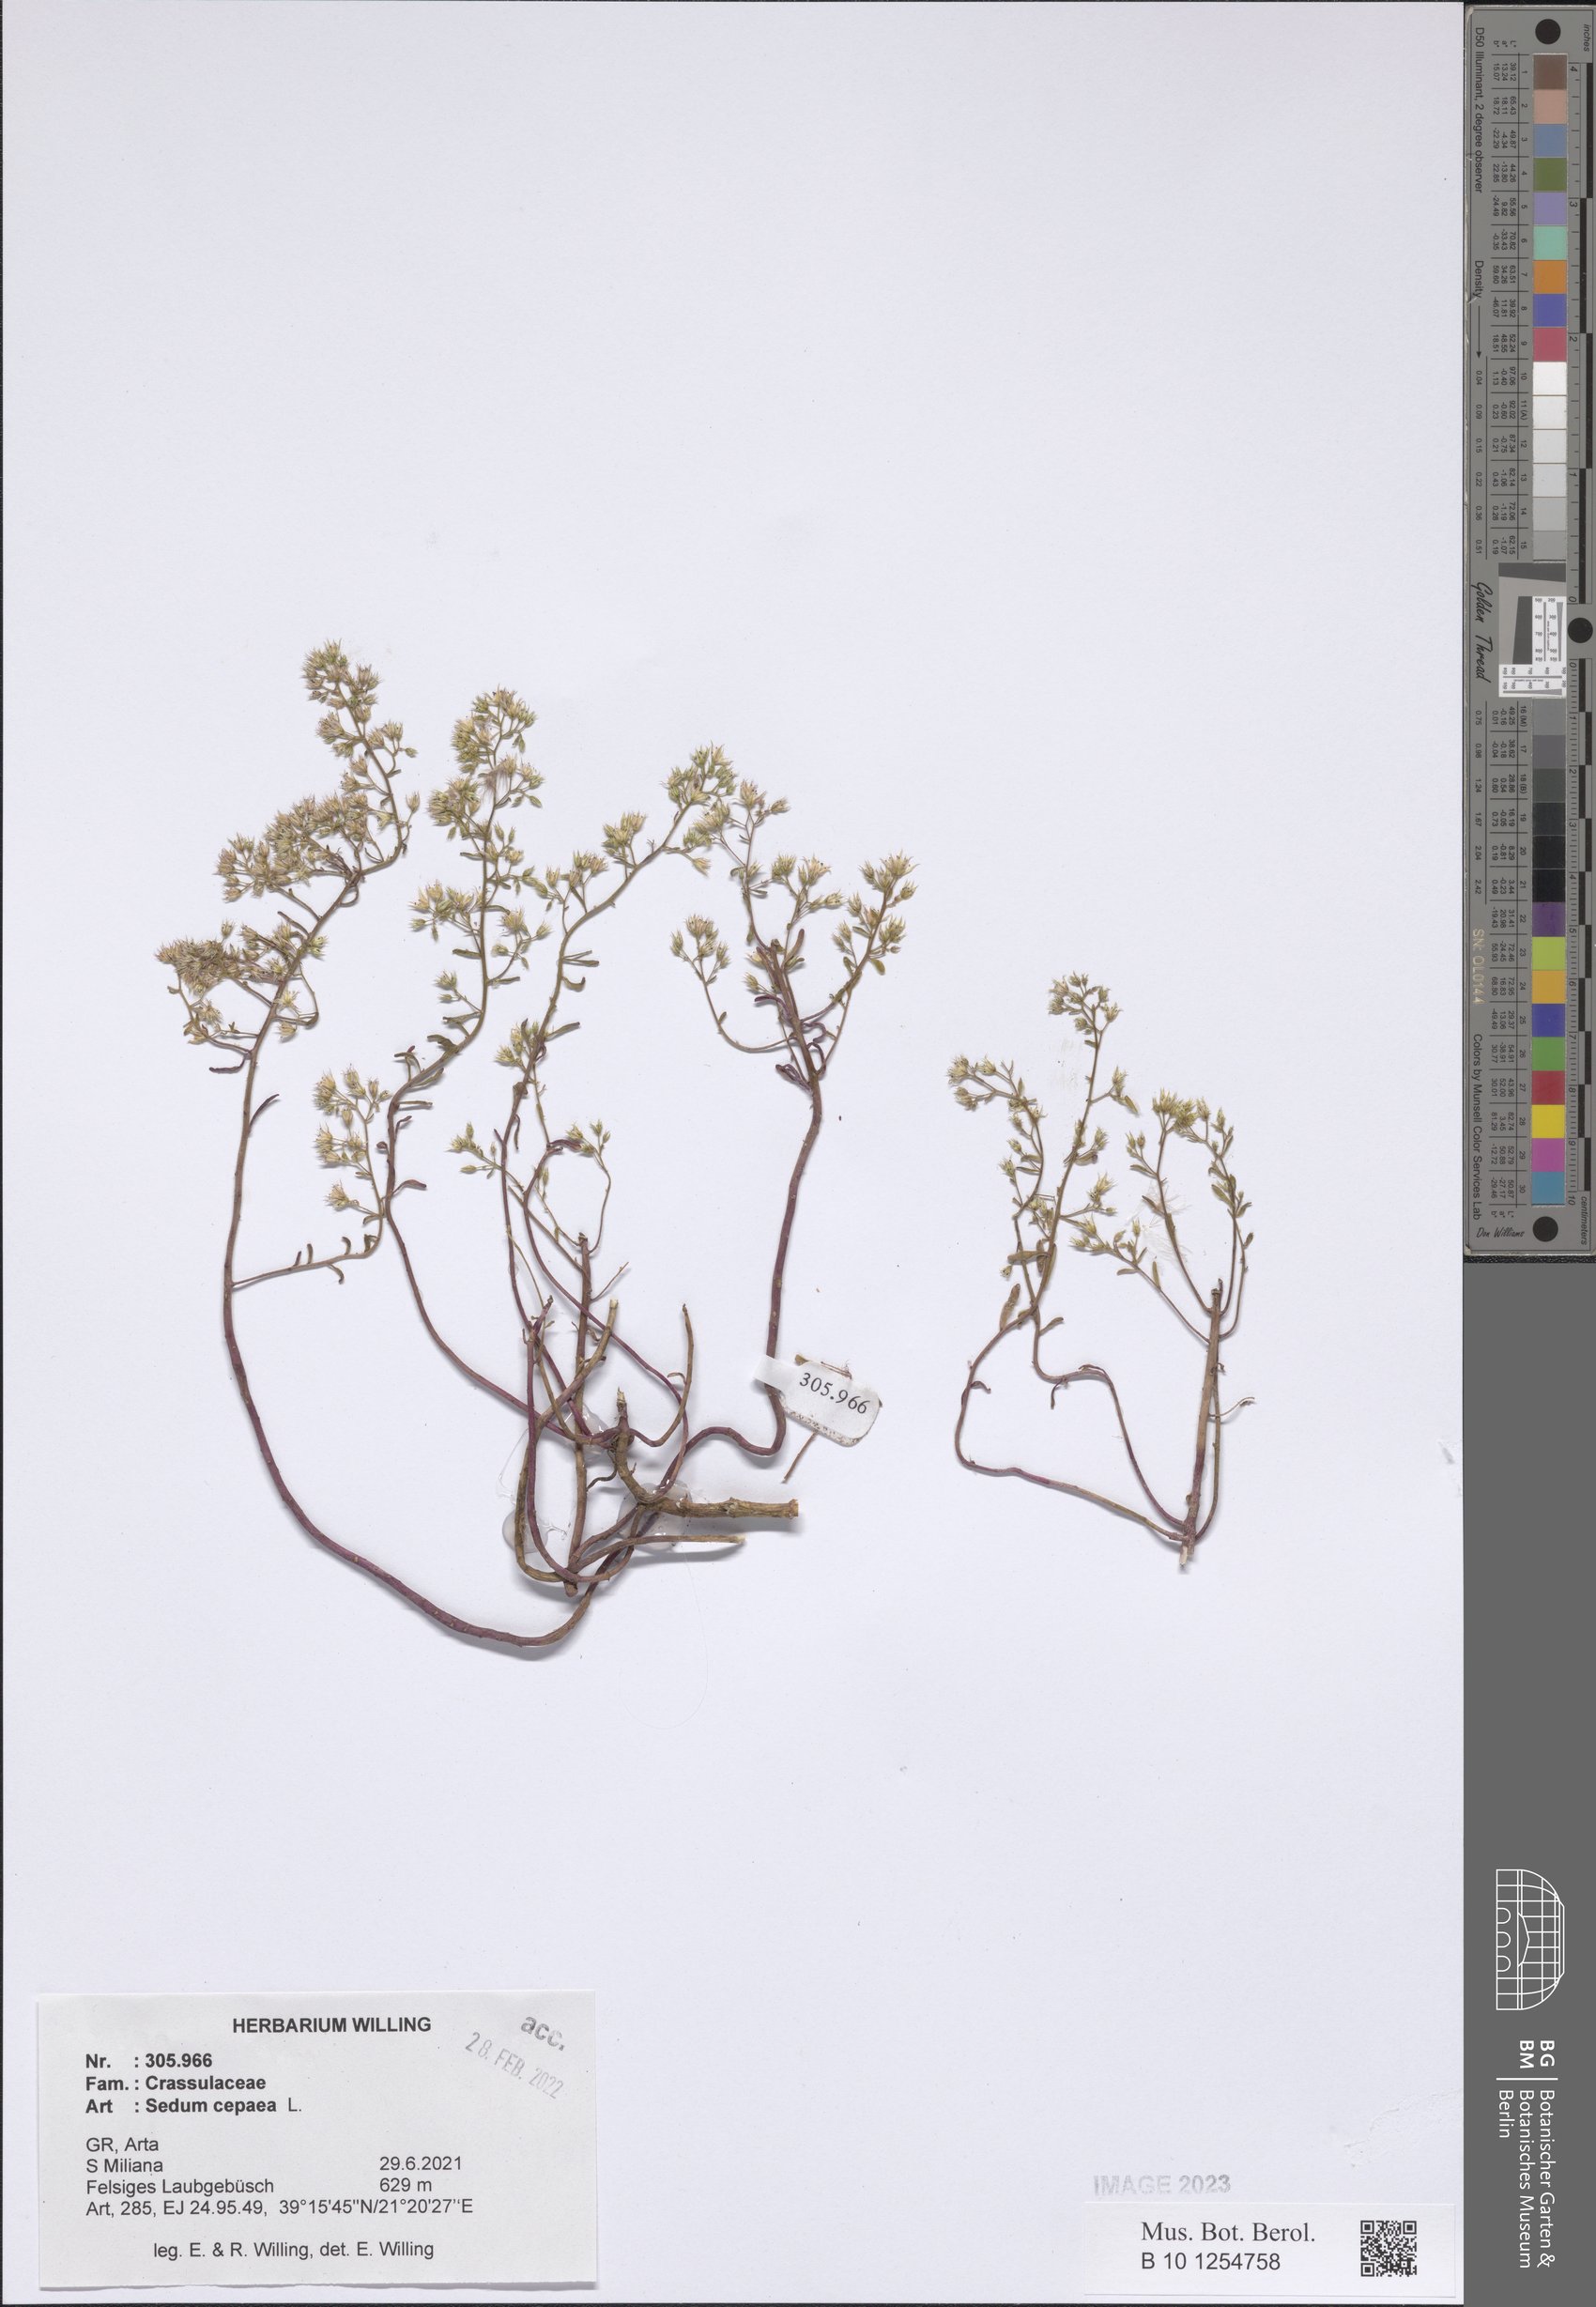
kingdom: Plantae
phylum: Tracheophyta
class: Magnoliopsida
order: Saxifragales
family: Crassulaceae
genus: Sedum
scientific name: Sedum cepaea
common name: Pink stonecrop
